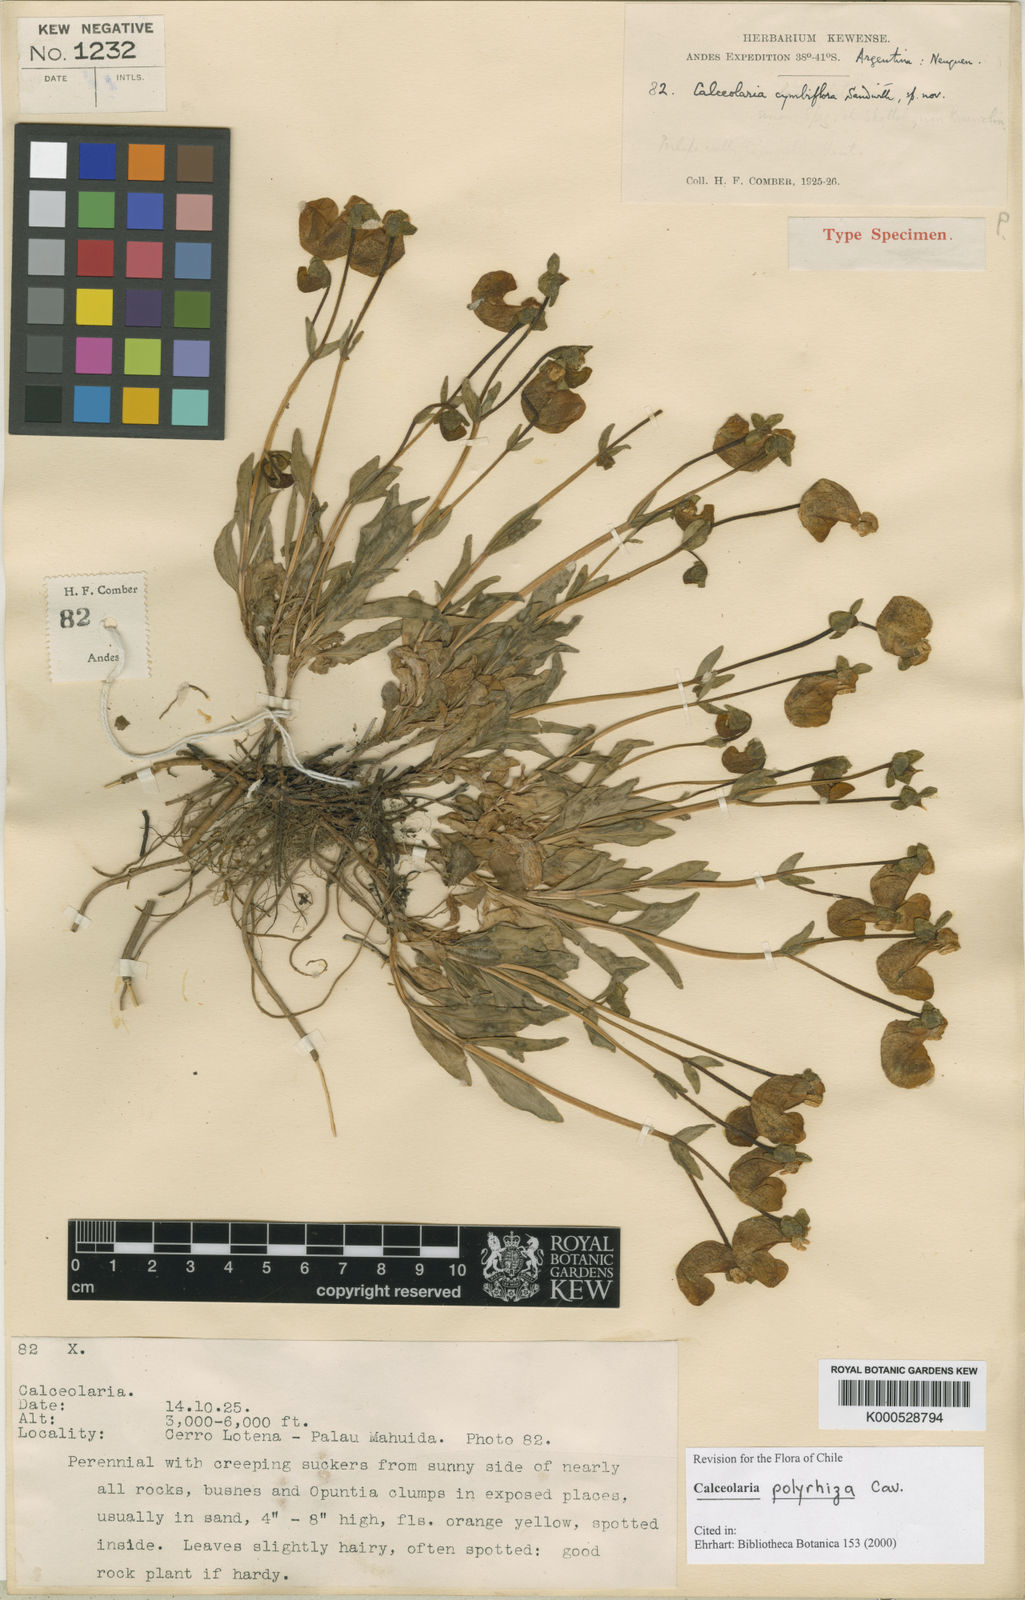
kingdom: Plantae
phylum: Tracheophyta
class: Magnoliopsida
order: Lamiales
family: Calceolariaceae
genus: Calceolaria
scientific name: Calceolaria polyrhiza
